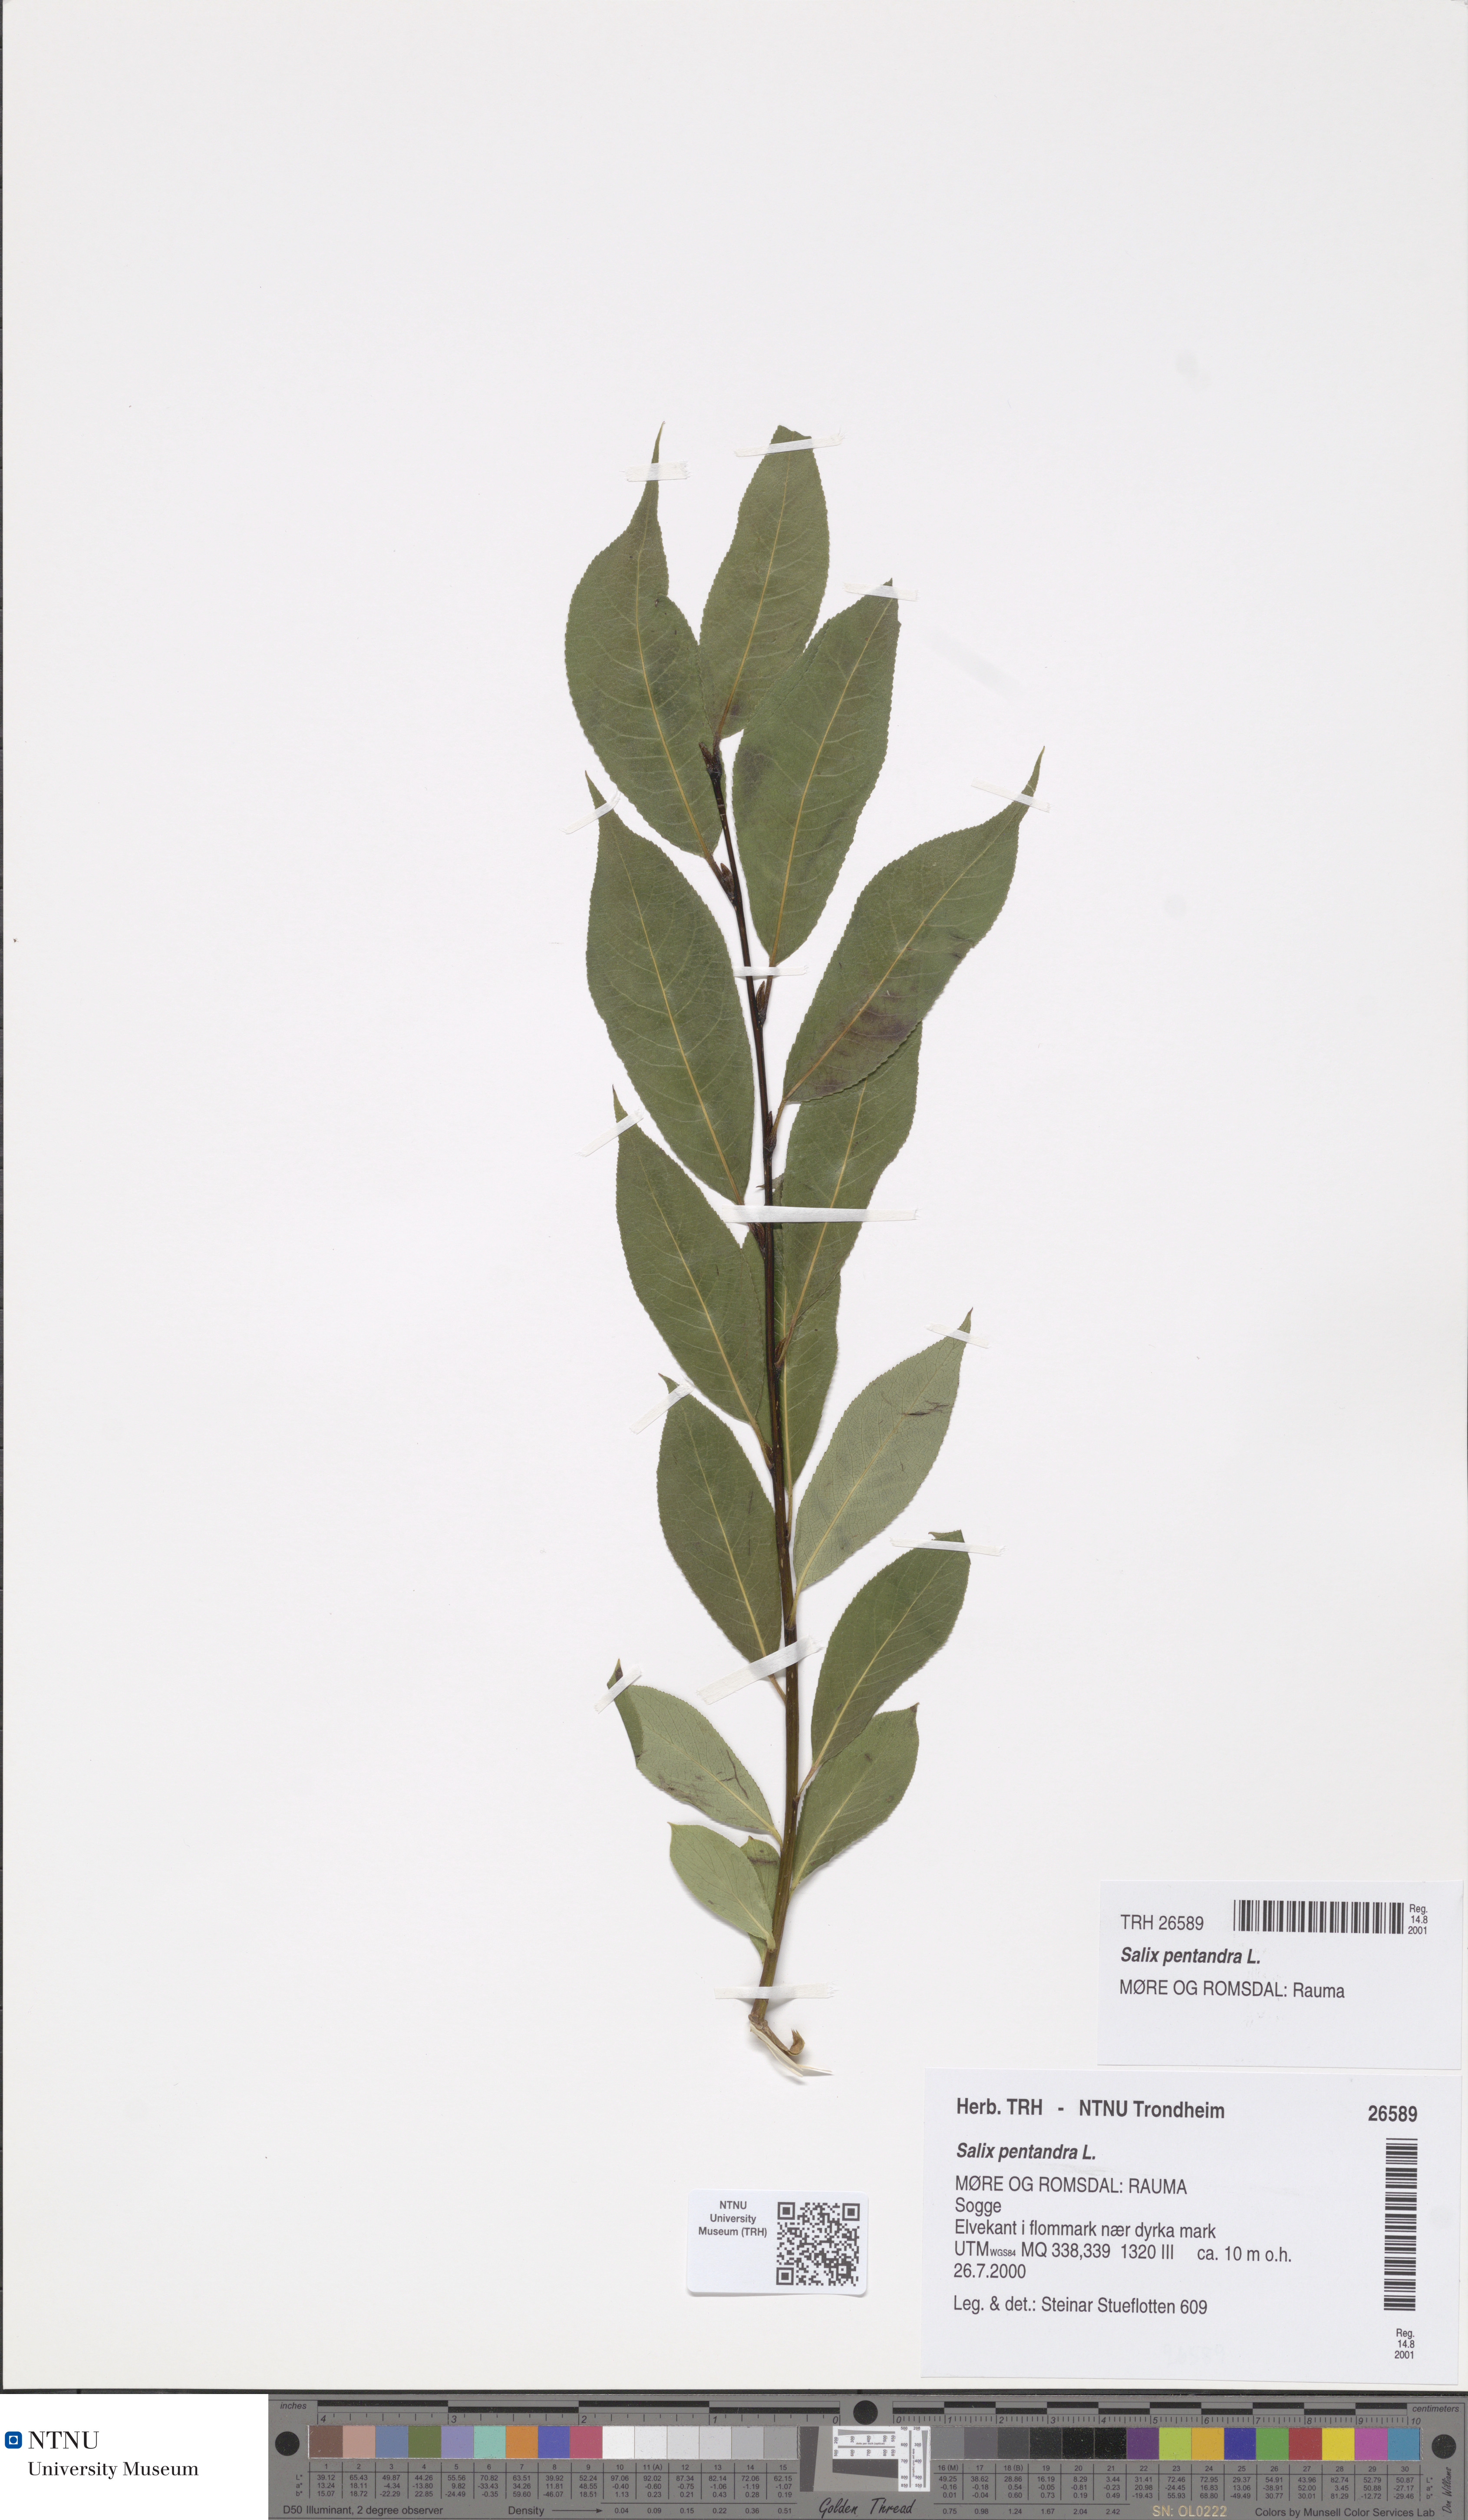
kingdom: Plantae
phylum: Tracheophyta
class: Magnoliopsida
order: Malpighiales
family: Salicaceae
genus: Salix
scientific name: Salix pentandra
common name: Bay willow
